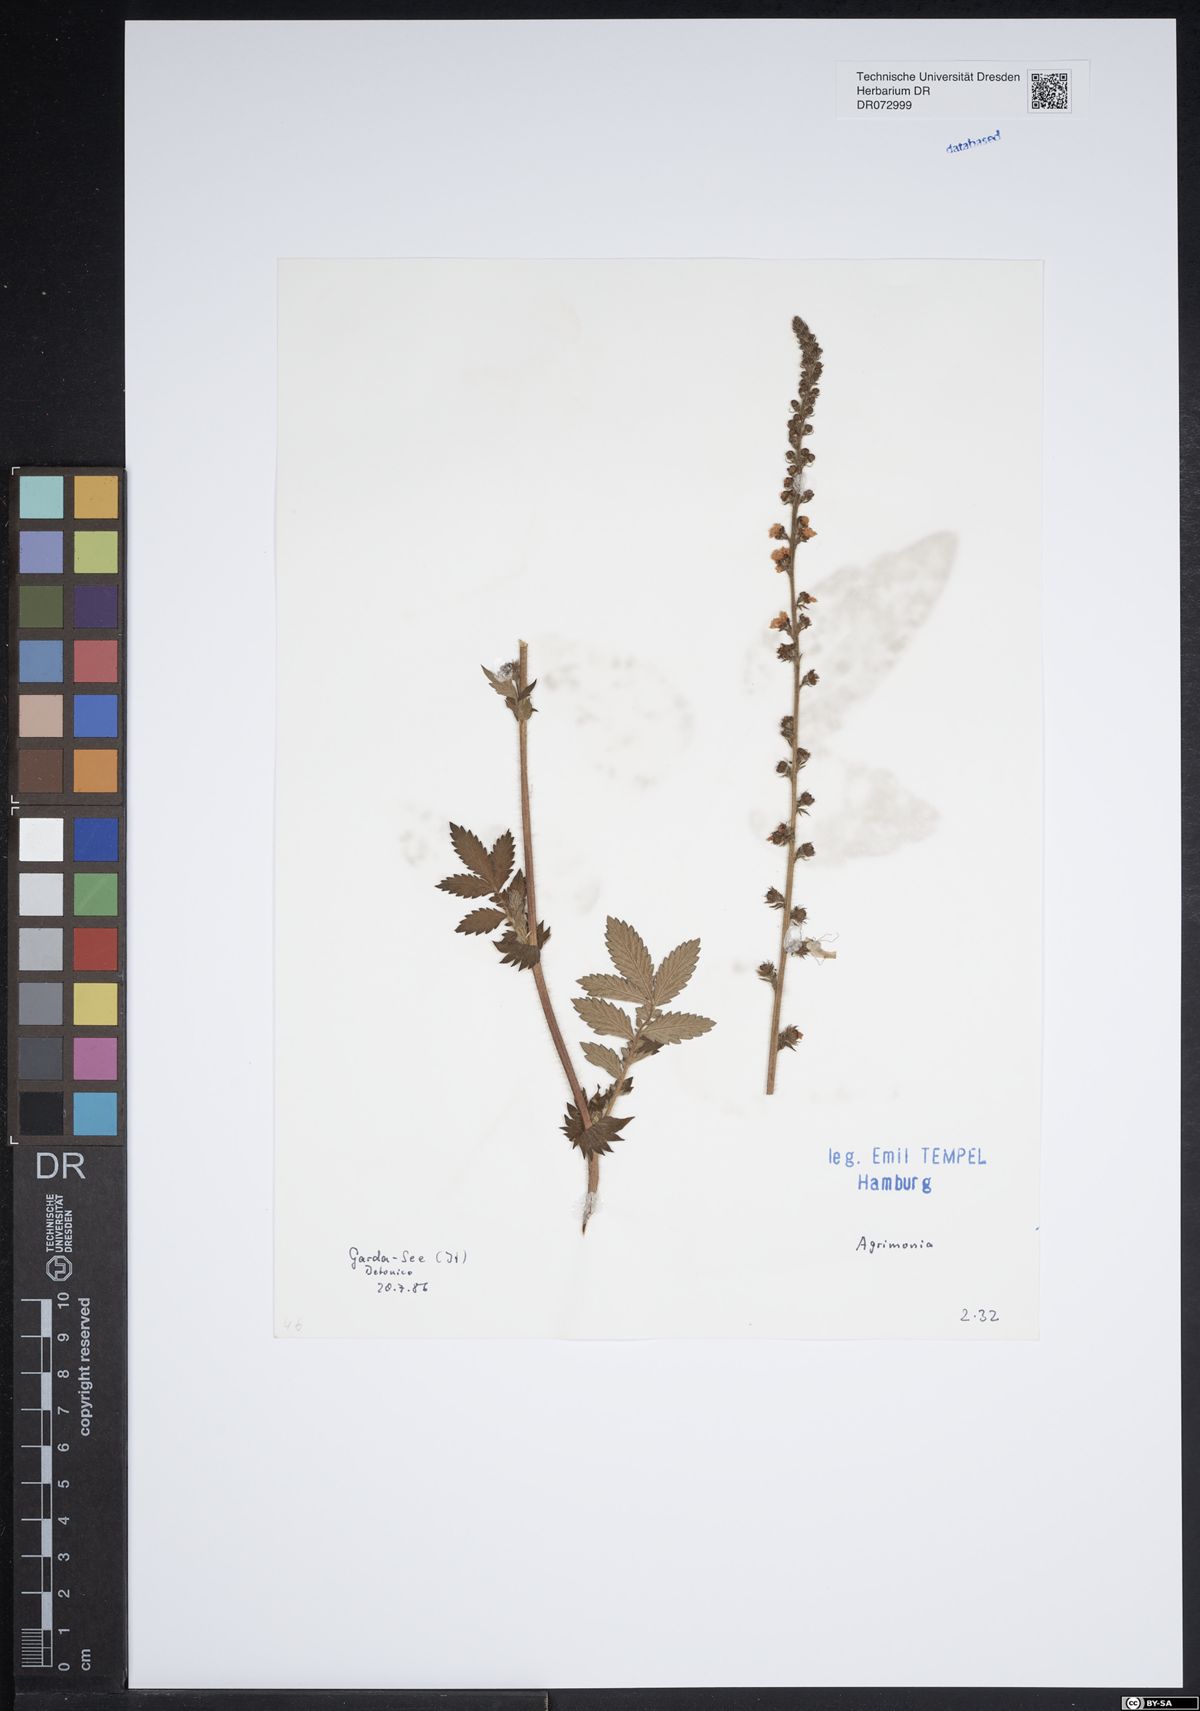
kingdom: Plantae
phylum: Tracheophyta
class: Magnoliopsida
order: Rosales
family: Rosaceae
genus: Agrimonia
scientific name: Agrimonia
